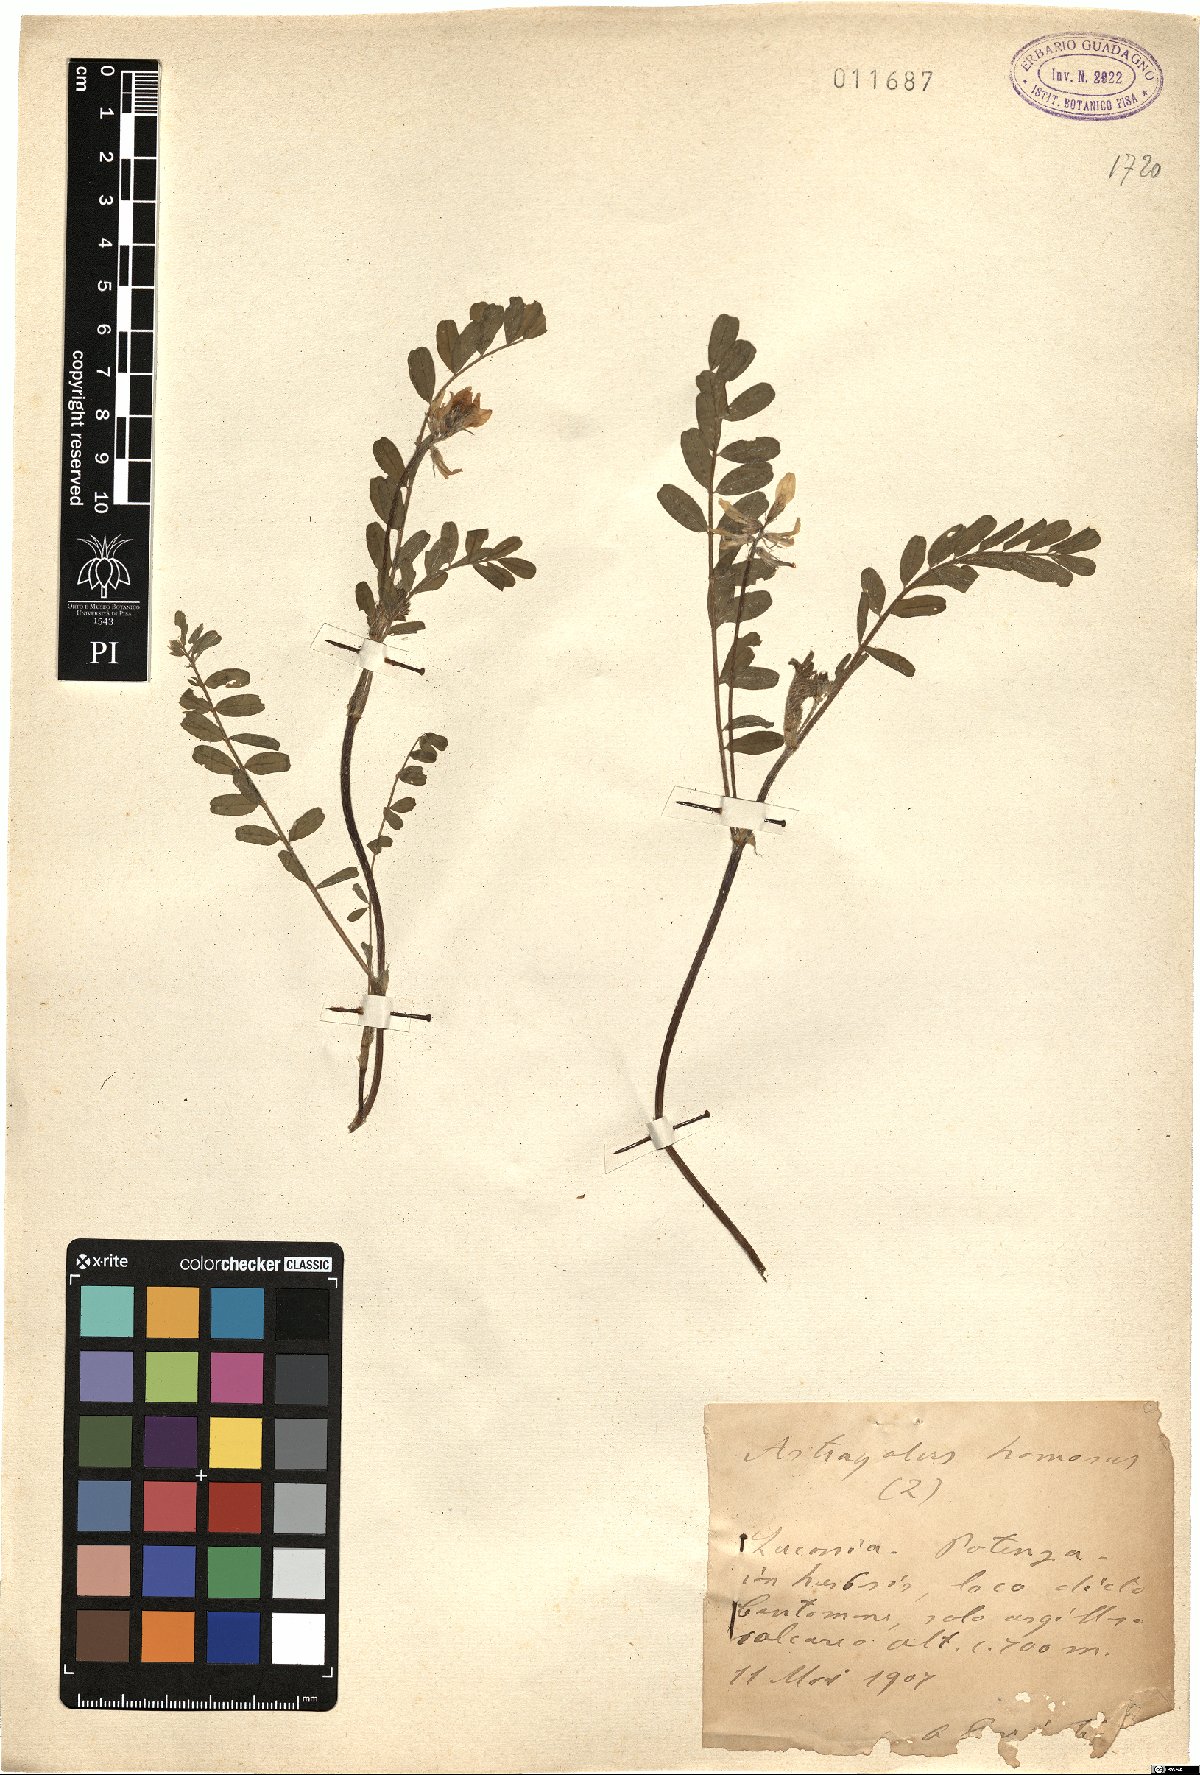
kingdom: Plantae
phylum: Tracheophyta
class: Magnoliopsida
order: Fabales
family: Fabaceae
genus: Astragalus
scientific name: Astragalus hamosus
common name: European milkvetch
